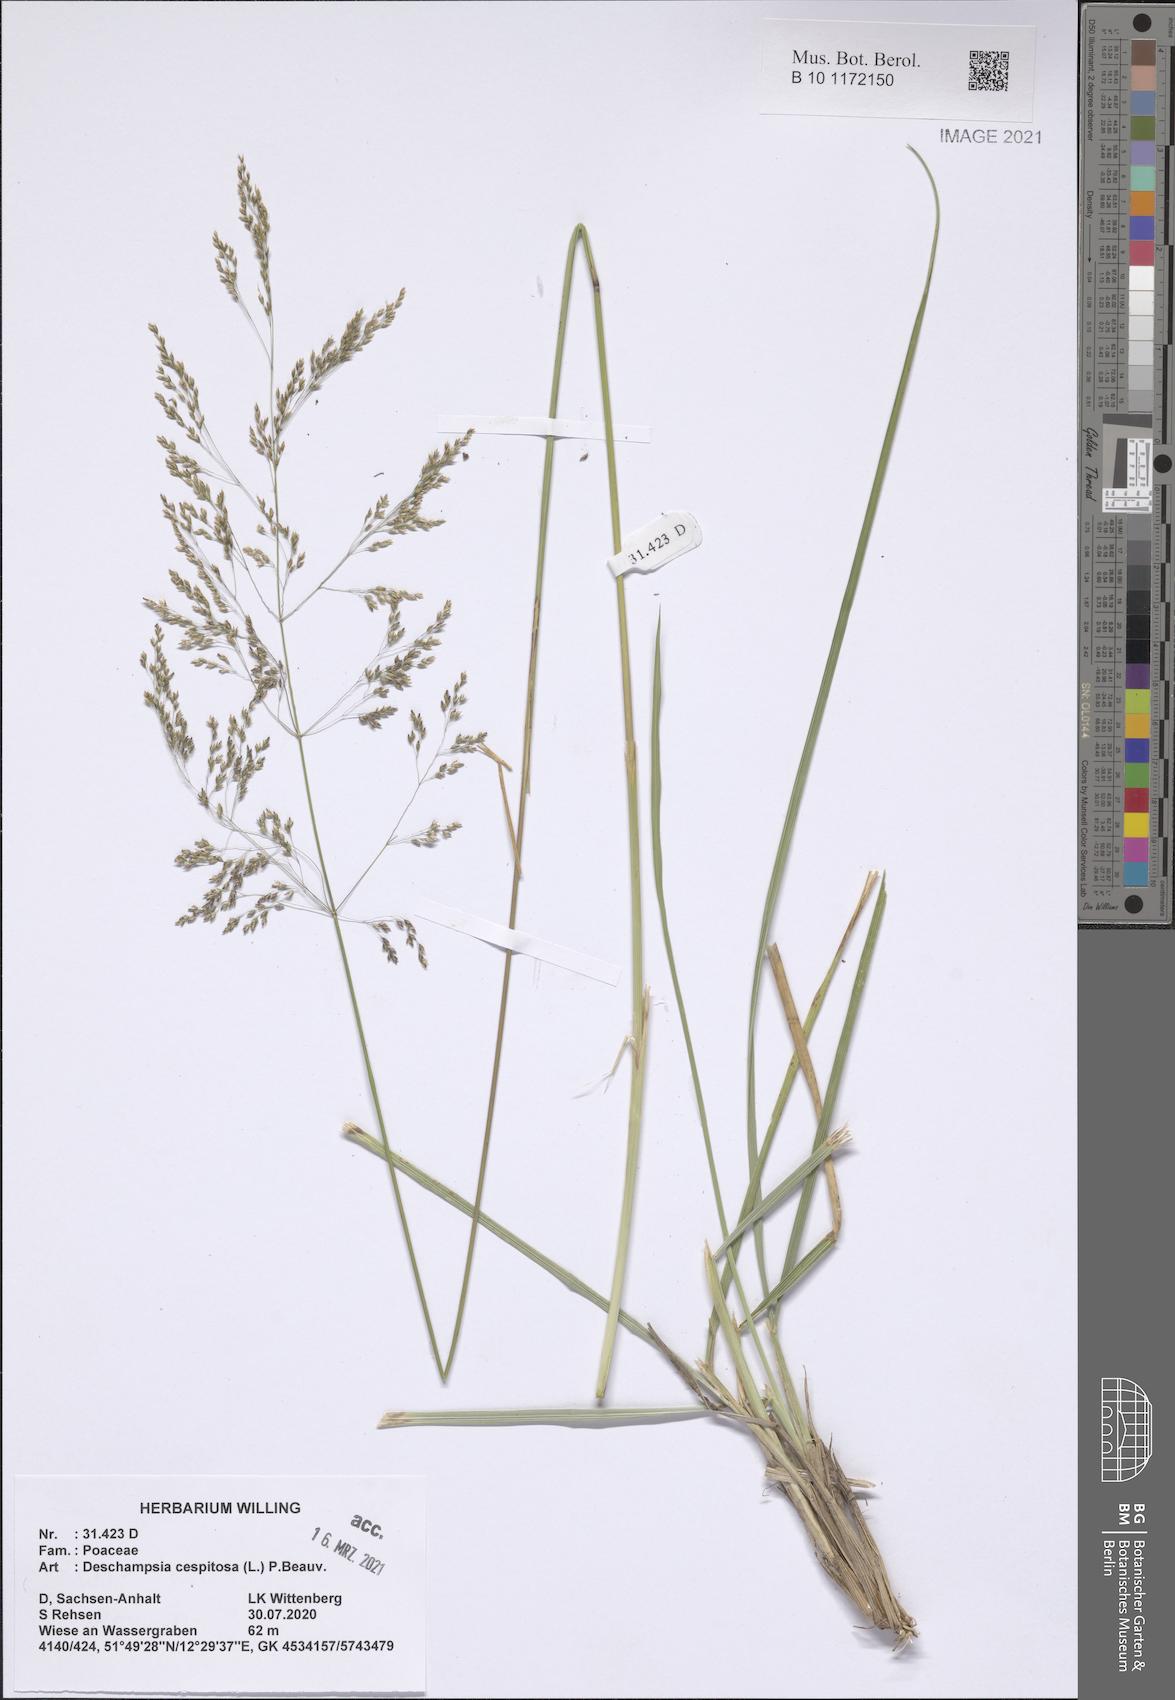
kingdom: Plantae
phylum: Tracheophyta
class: Liliopsida
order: Poales
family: Poaceae
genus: Deschampsia
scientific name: Deschampsia cespitosa
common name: Tufted hair-grass
